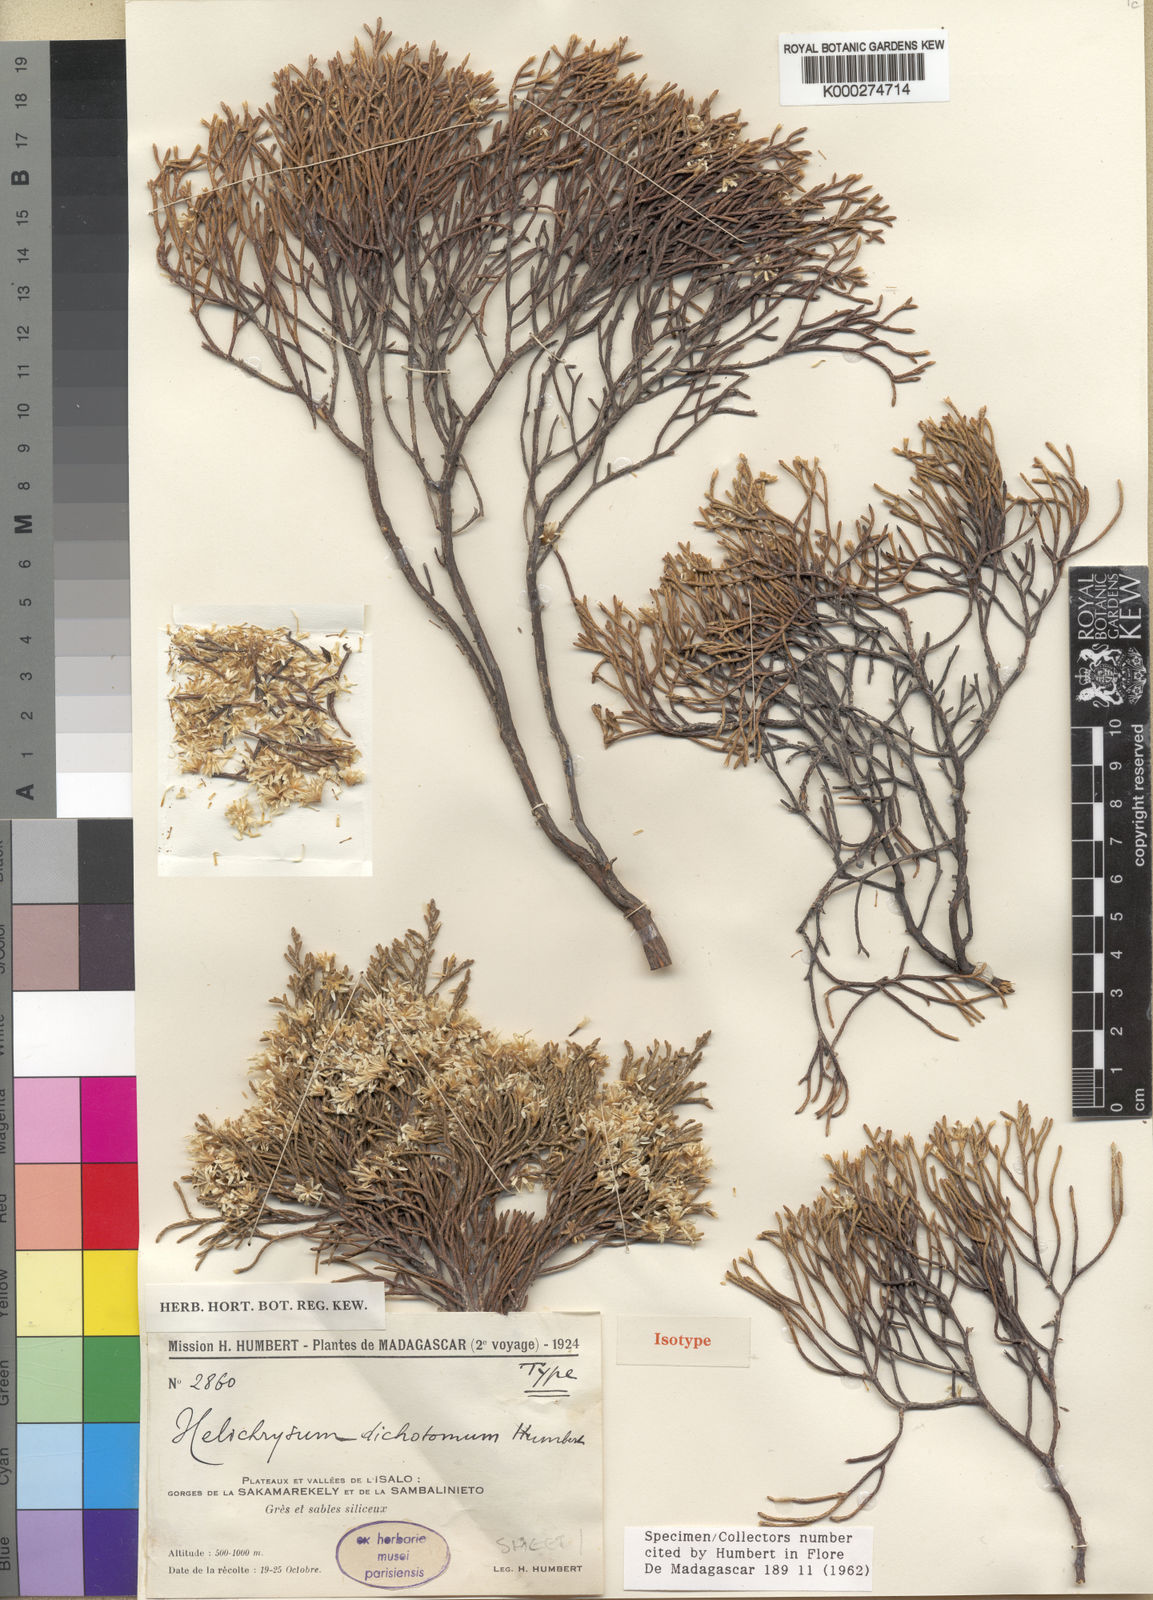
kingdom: Plantae
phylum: Tracheophyta
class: Magnoliopsida
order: Asterales
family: Asteraceae
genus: Helichrysum
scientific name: Helichrysum dichotomum
